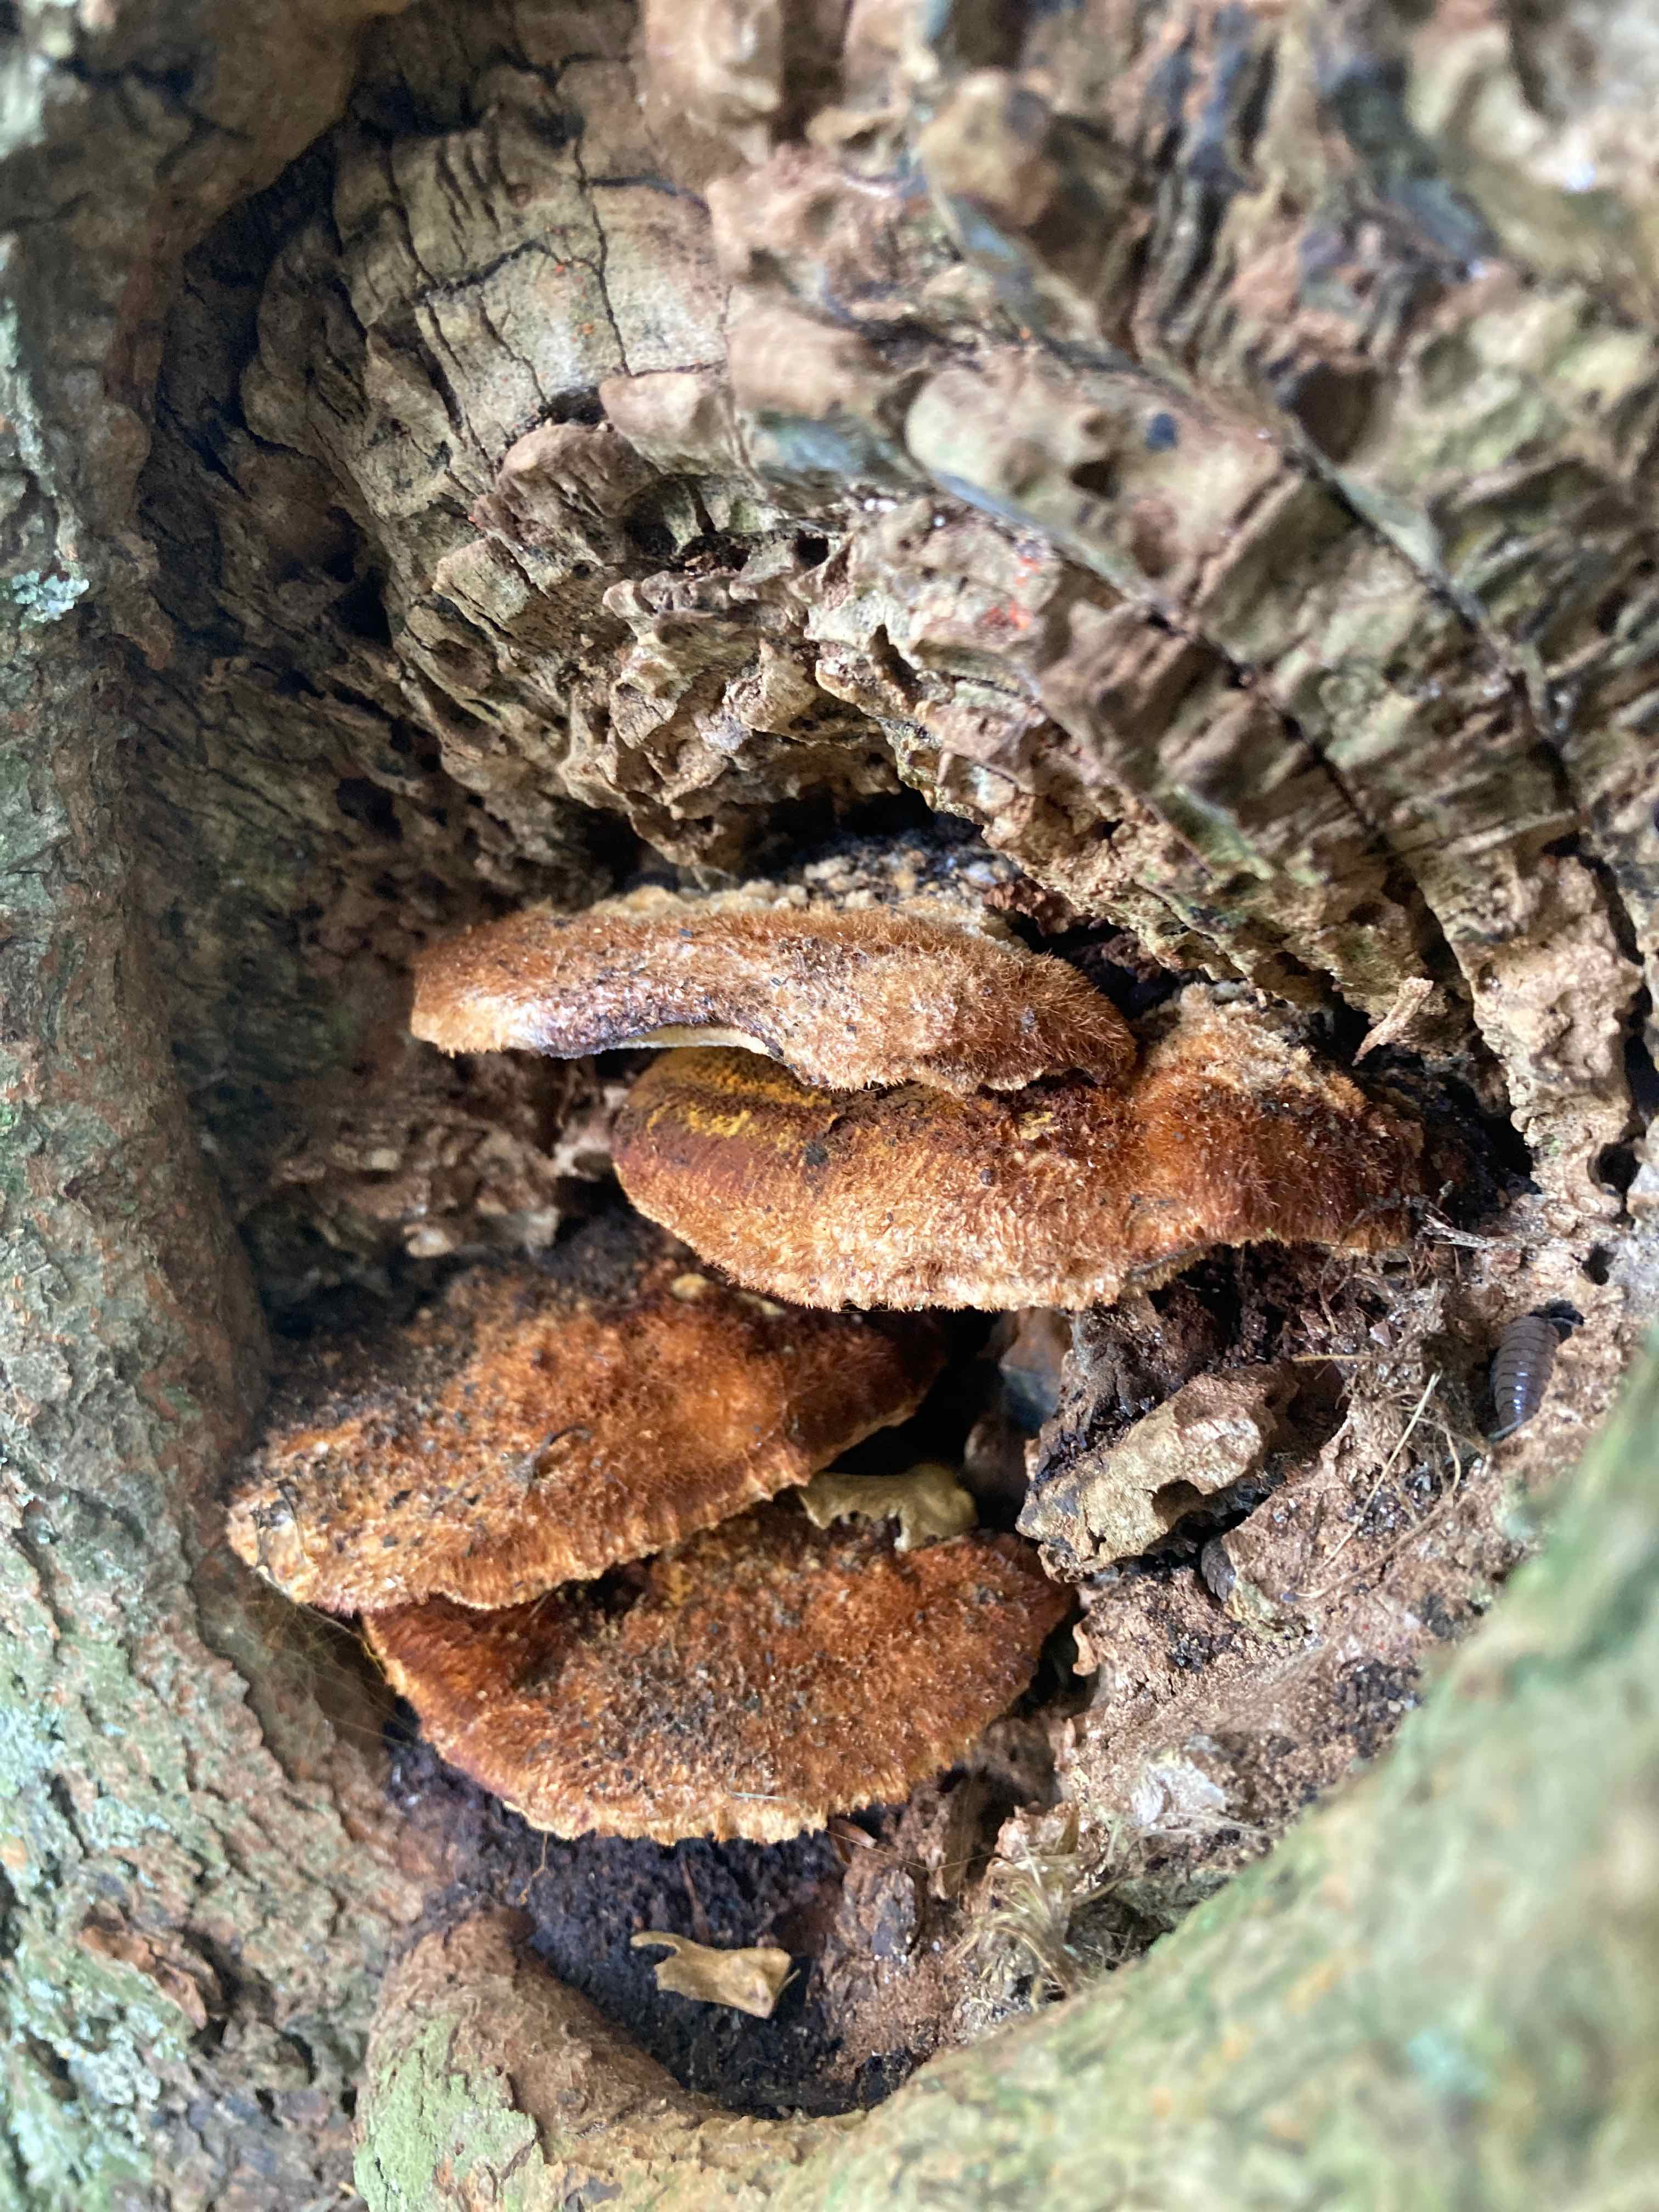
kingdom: Fungi
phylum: Basidiomycota
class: Agaricomycetes
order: Hymenochaetales
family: Hymenochaetaceae
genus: Inonotus
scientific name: Inonotus cuticularis
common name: kroghåret spejlporesvamp
